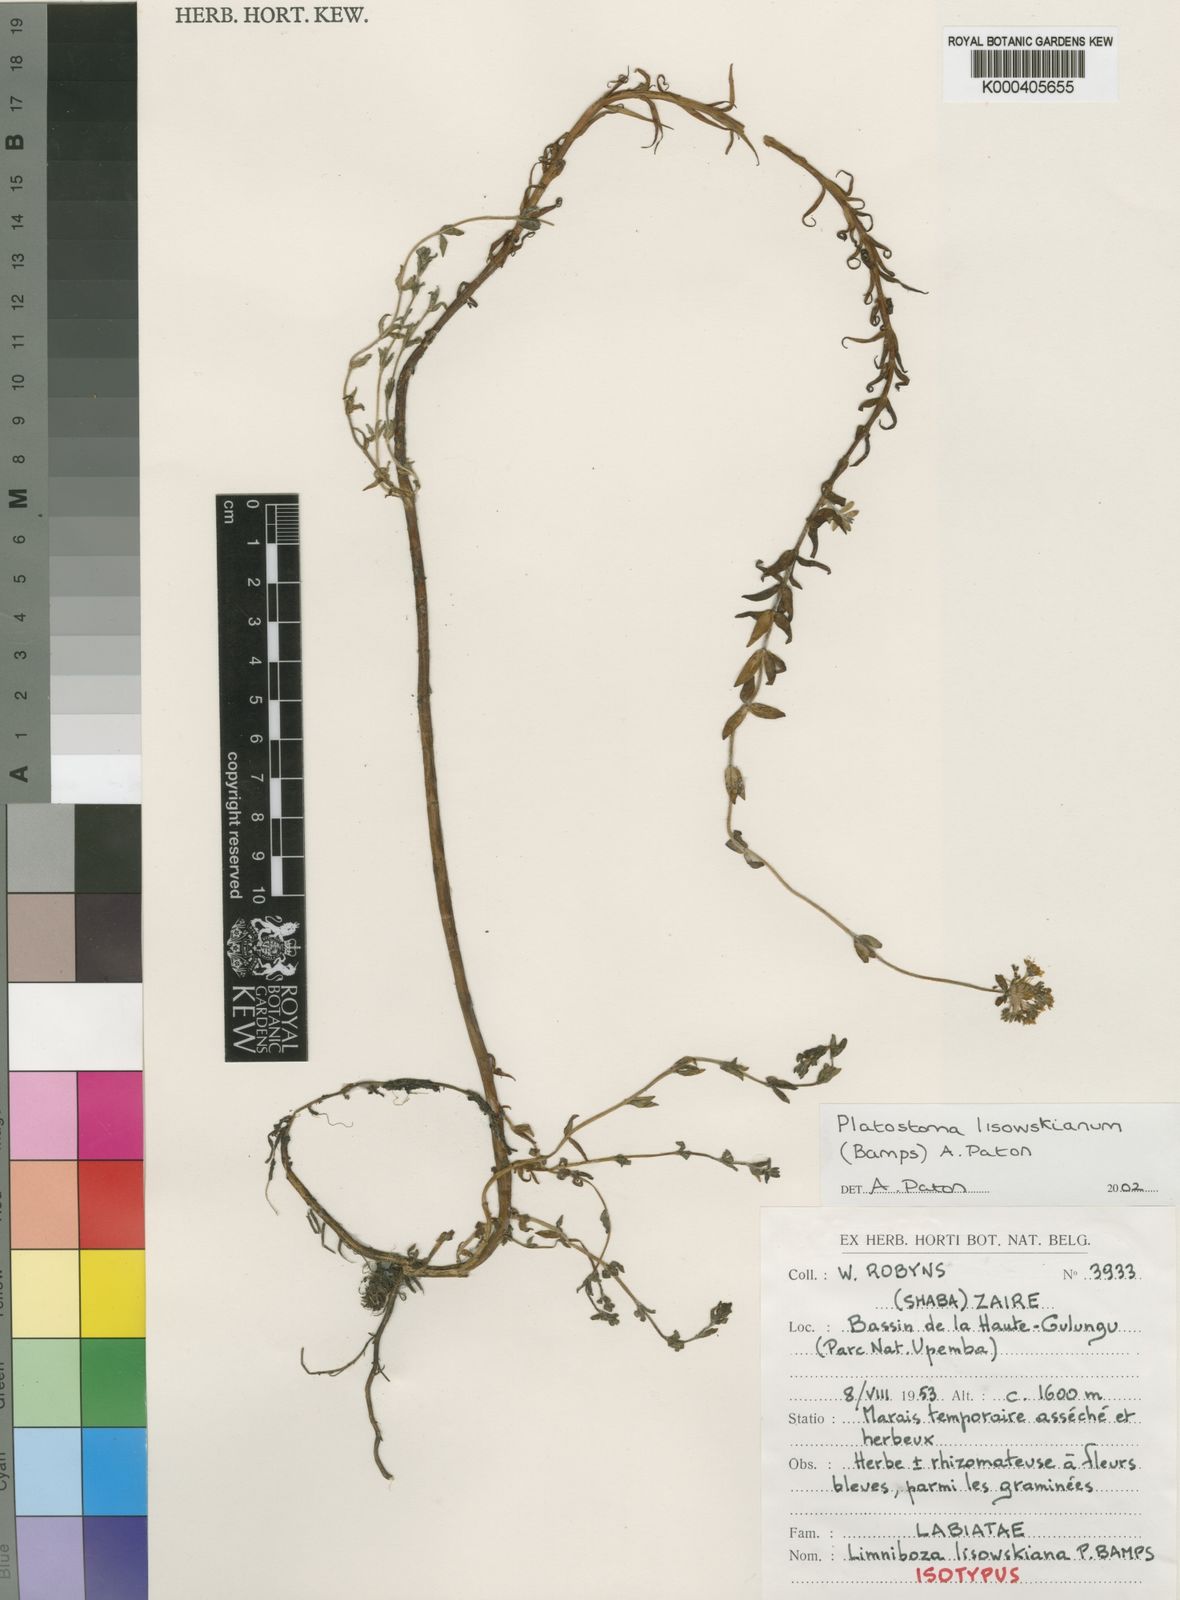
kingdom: Plantae
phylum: Tracheophyta
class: Magnoliopsida
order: Lamiales
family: Lamiaceae
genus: Platostoma
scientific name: Platostoma
